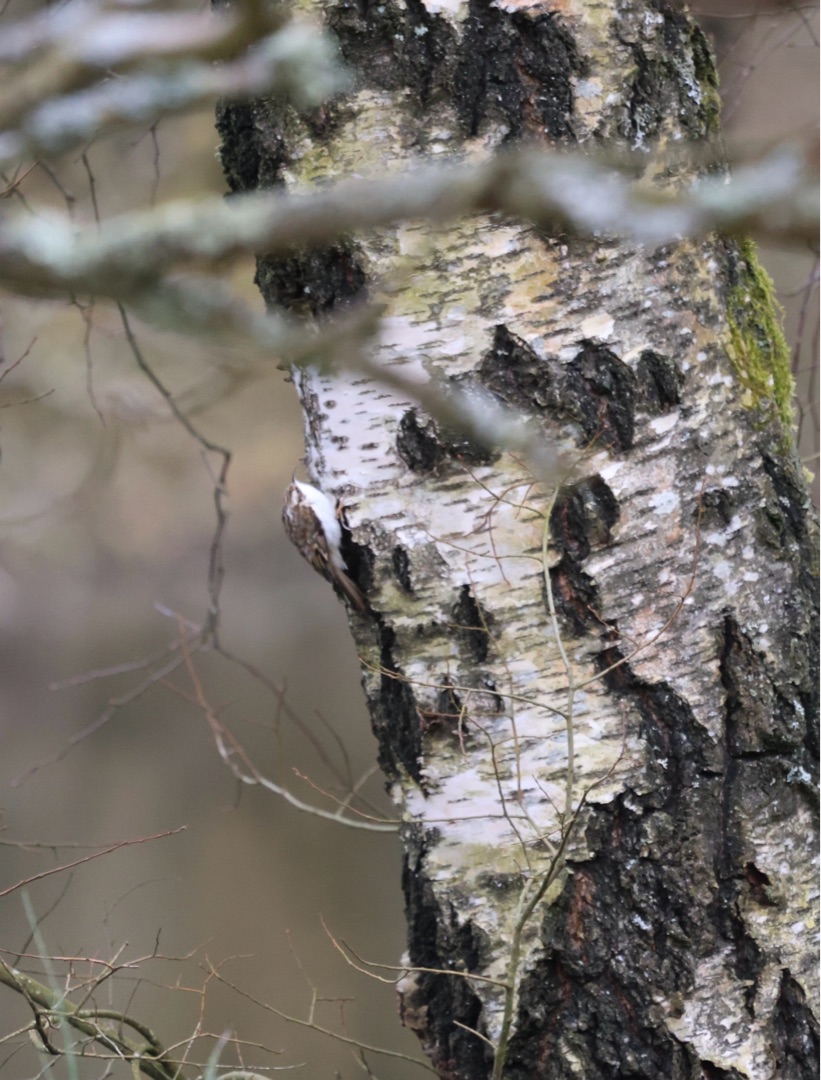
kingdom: Animalia
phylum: Chordata
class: Aves
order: Passeriformes
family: Certhiidae
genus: Certhia
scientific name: Certhia familiaris
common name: Træløber
